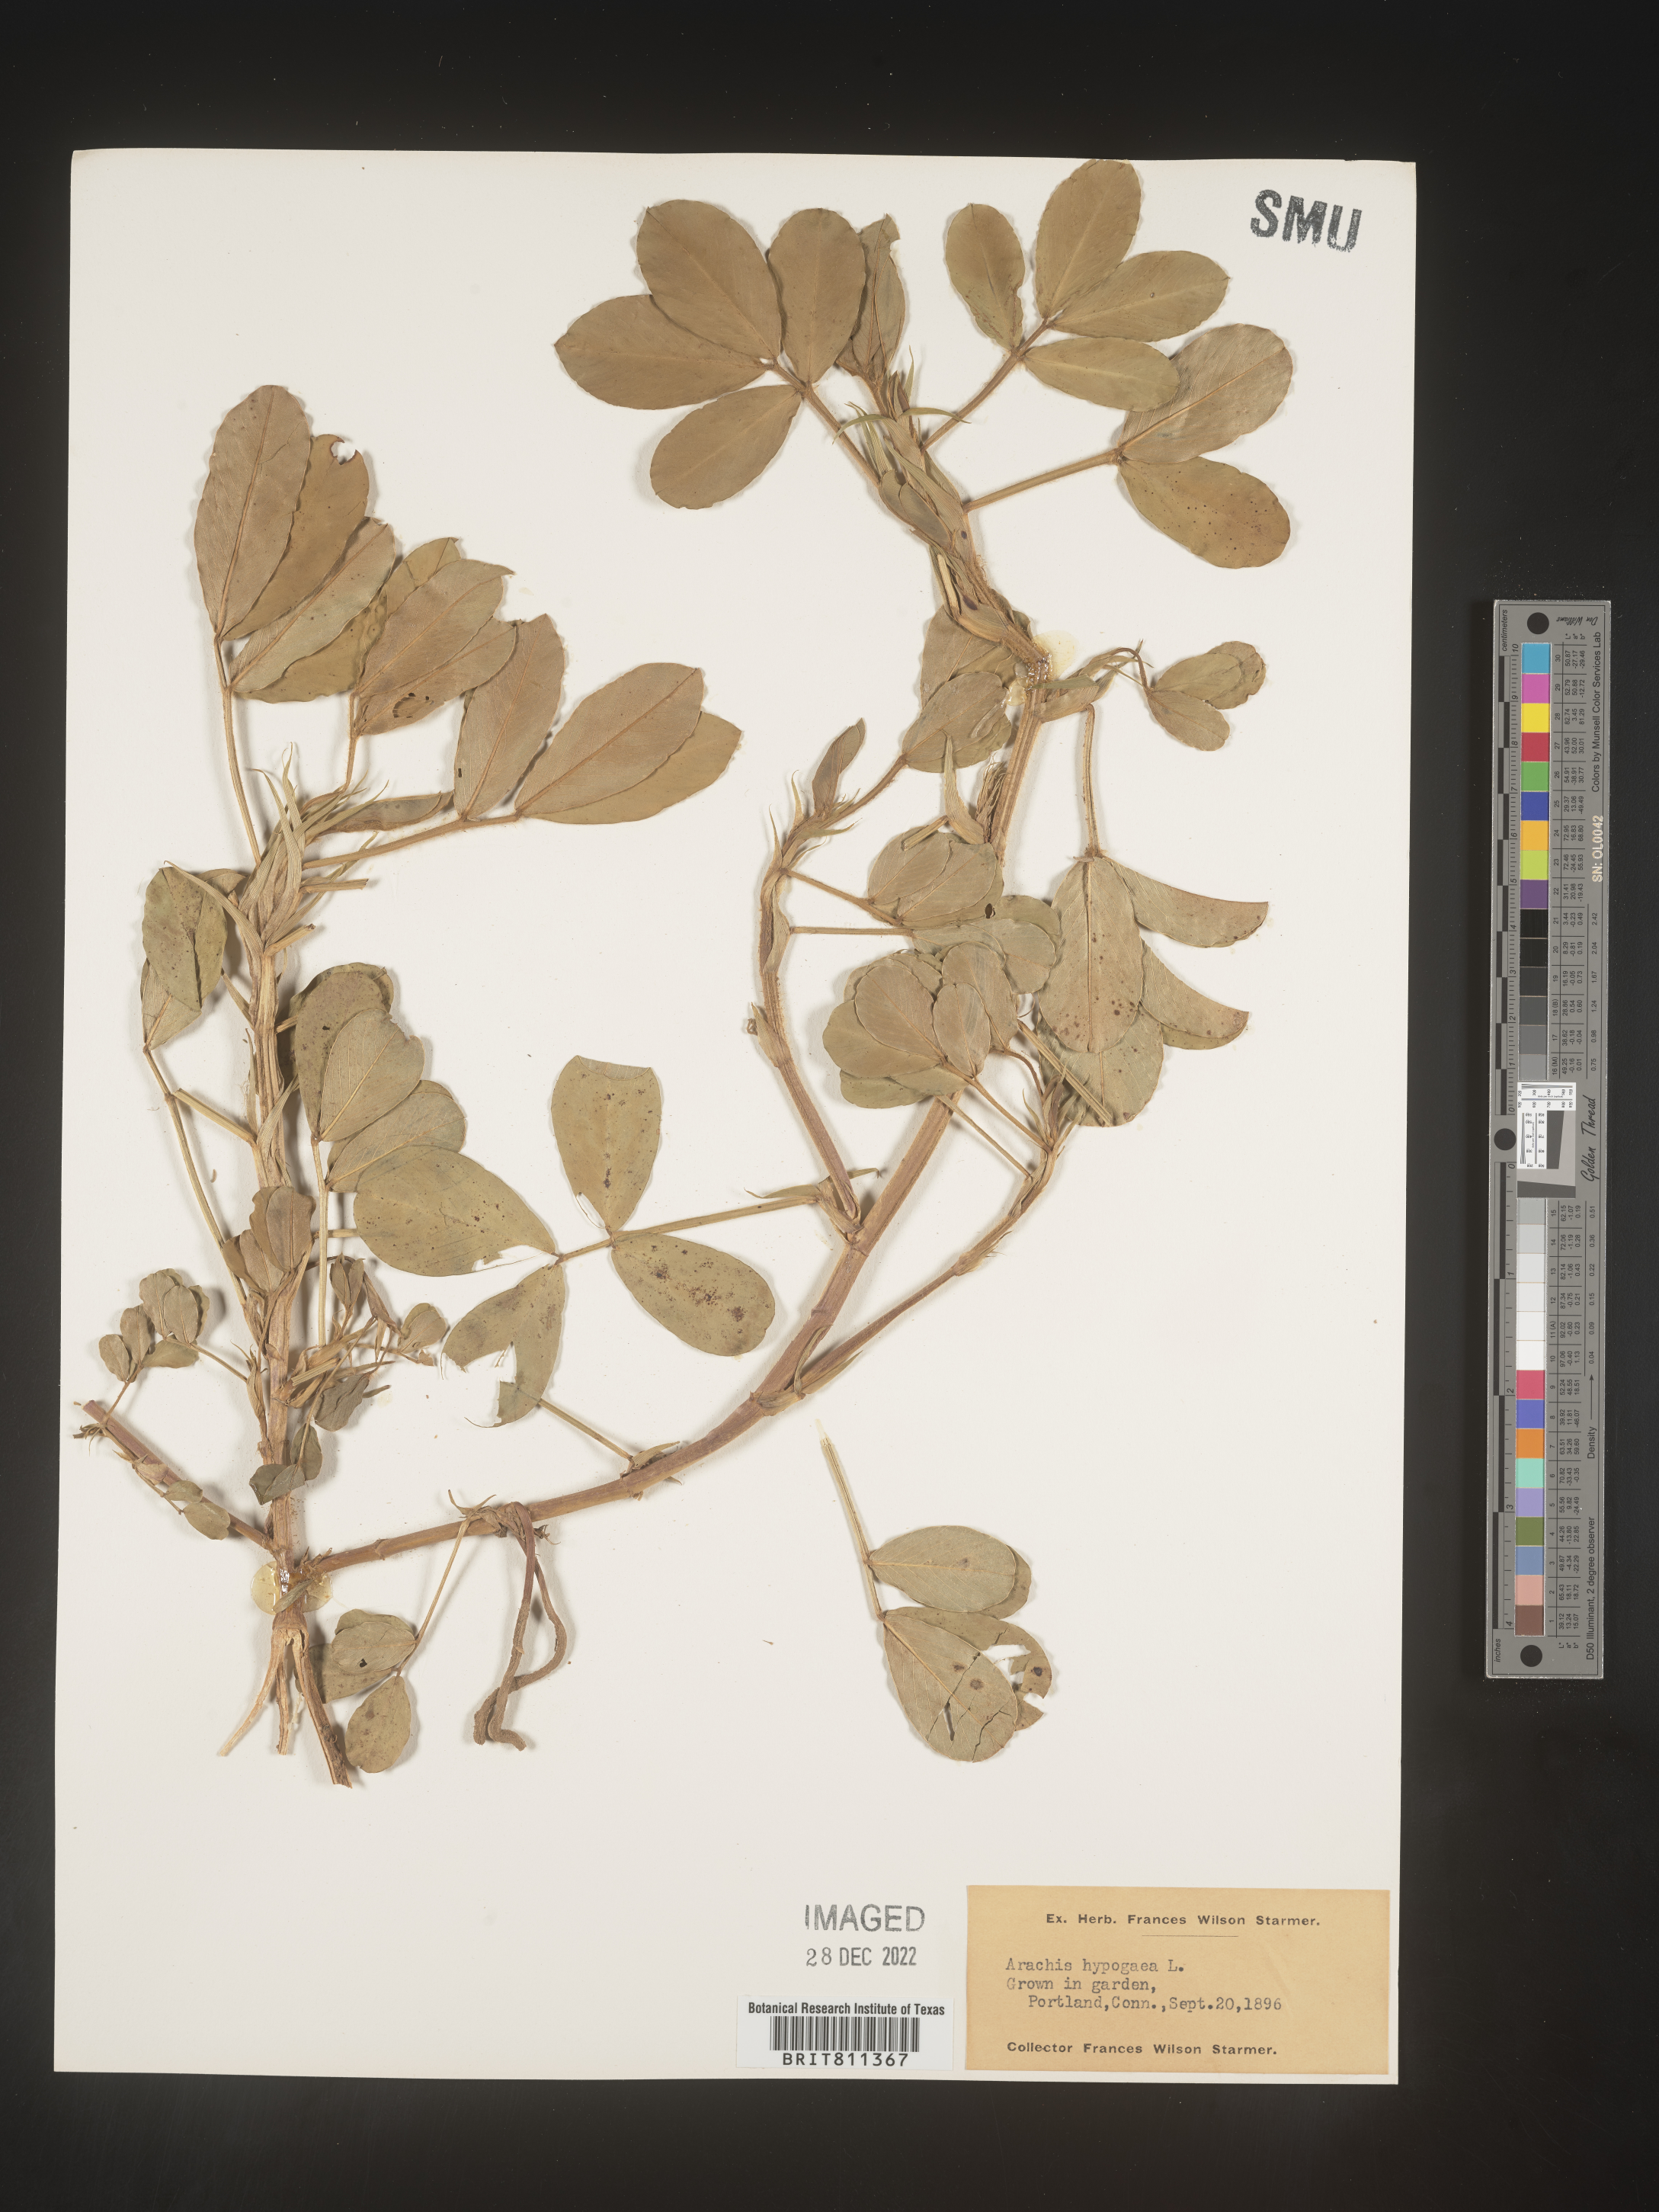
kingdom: Plantae
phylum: Tracheophyta
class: Magnoliopsida
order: Fabales
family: Fabaceae
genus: Arachis
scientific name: Arachis
